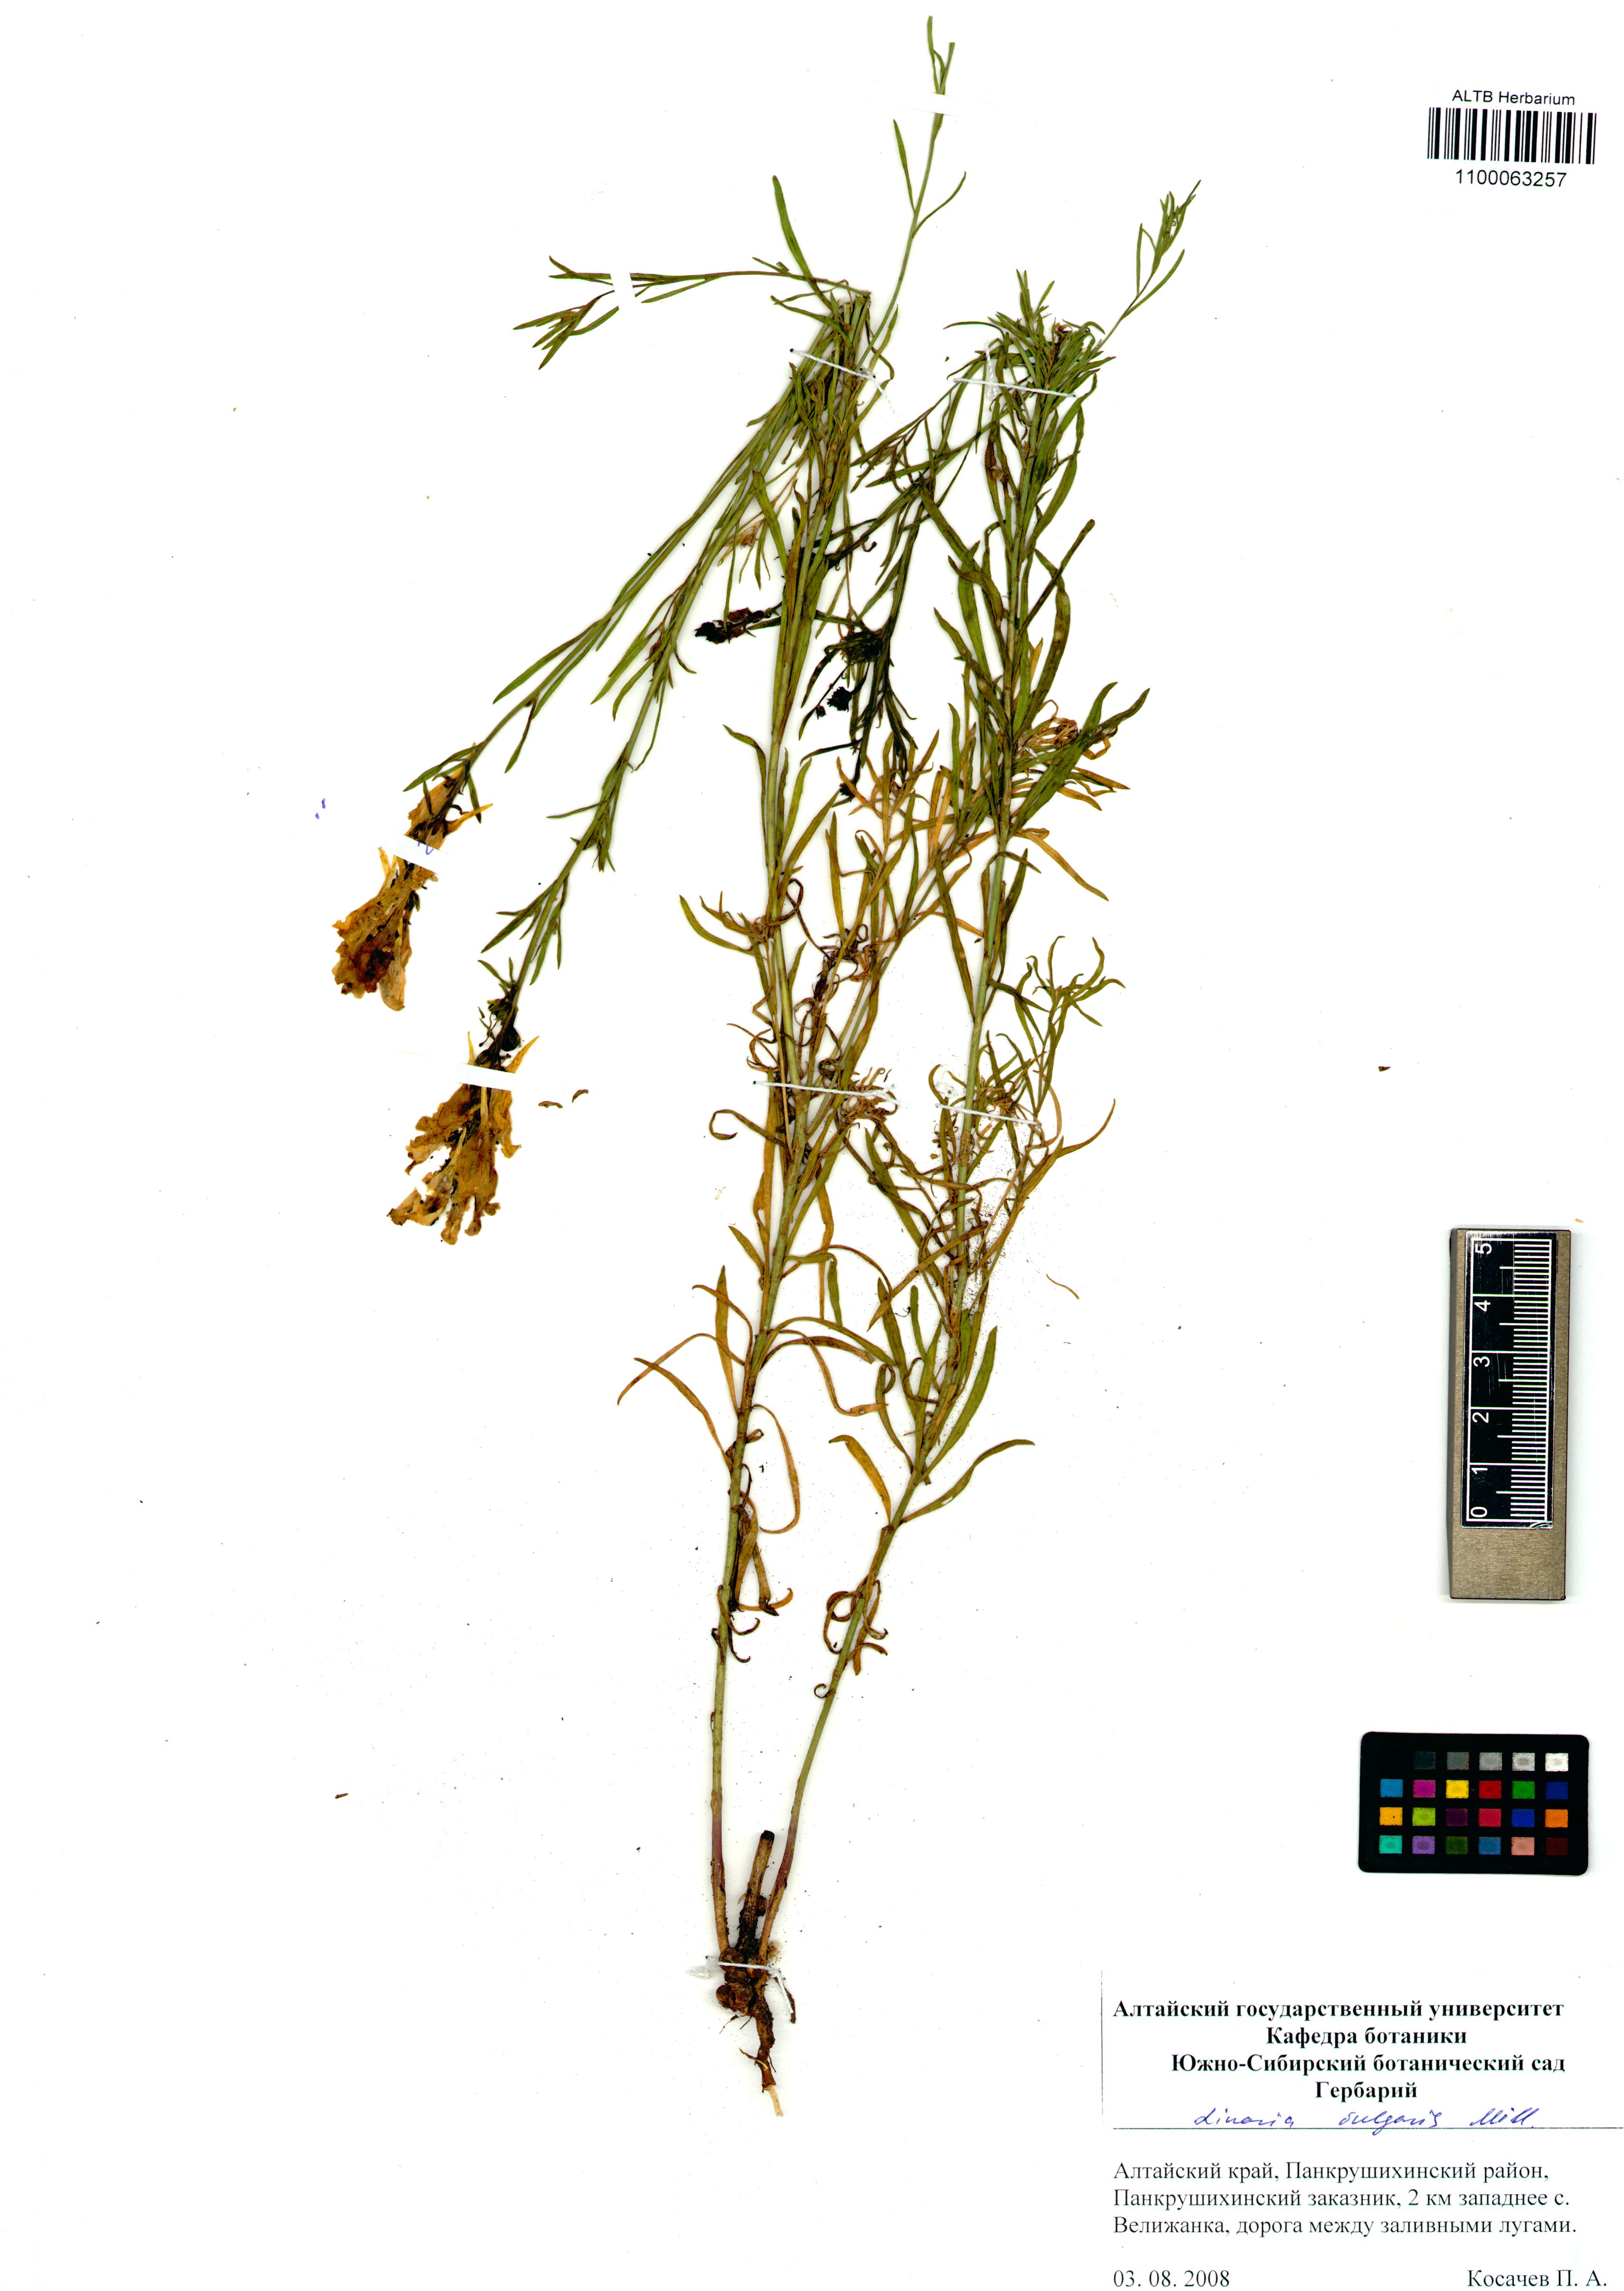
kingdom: Plantae
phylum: Tracheophyta
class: Magnoliopsida
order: Lamiales
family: Plantaginaceae
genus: Linaria
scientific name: Linaria vulgaris
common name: Butter and eggs
